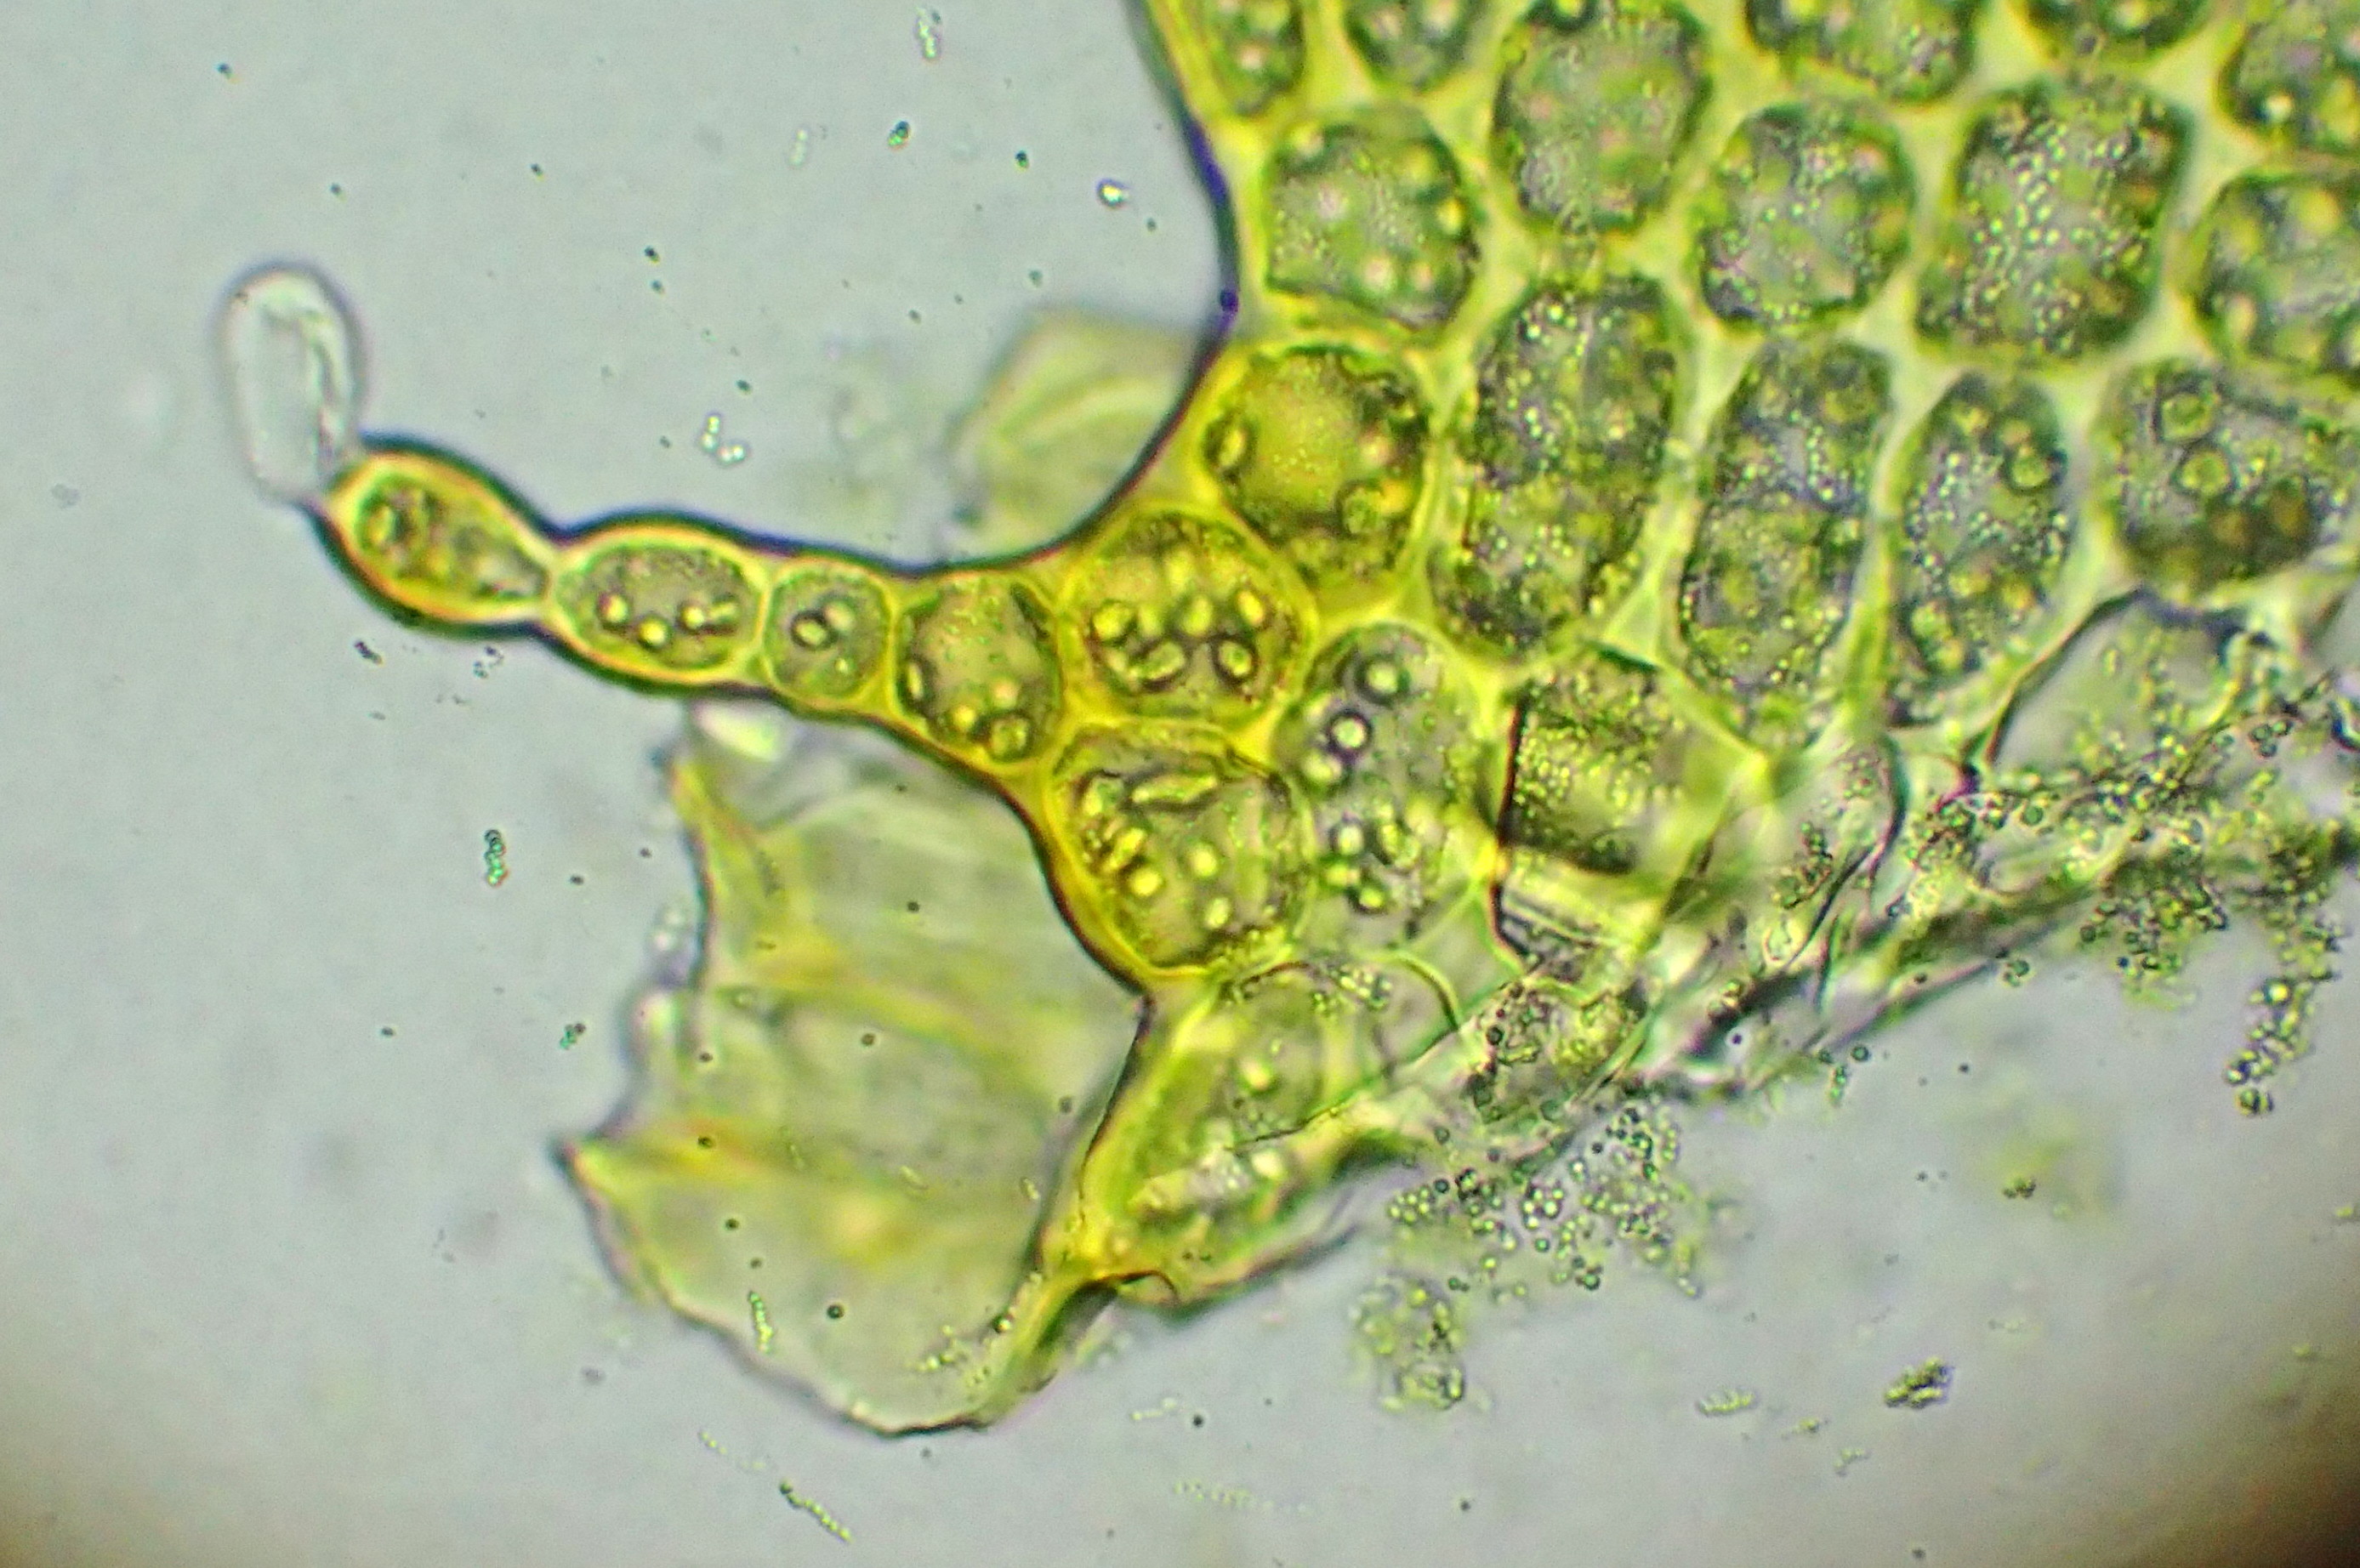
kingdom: Plantae
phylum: Marchantiophyta
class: Jungermanniopsida
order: Jungermanniales
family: Anastrophyllaceae
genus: Neoorthocaulis
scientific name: Neoorthocaulis attenuatus
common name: Tynd flerfligmos
